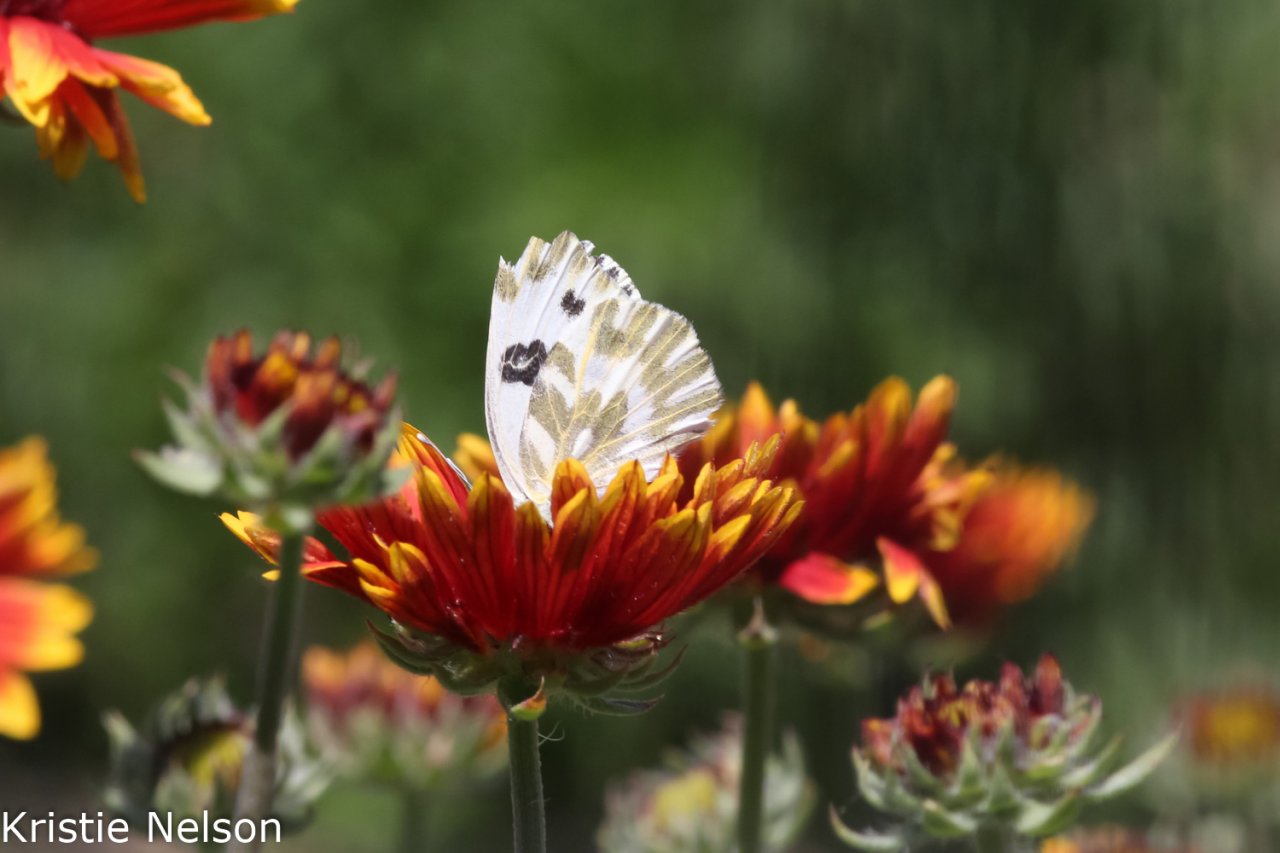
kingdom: Animalia
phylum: Arthropoda
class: Insecta
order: Lepidoptera
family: Pieridae
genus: Pontia
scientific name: Pontia beckerii
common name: Becker's White
